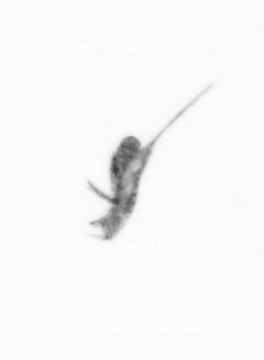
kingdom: Animalia
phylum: Arthropoda
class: Copepoda
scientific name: Copepoda
